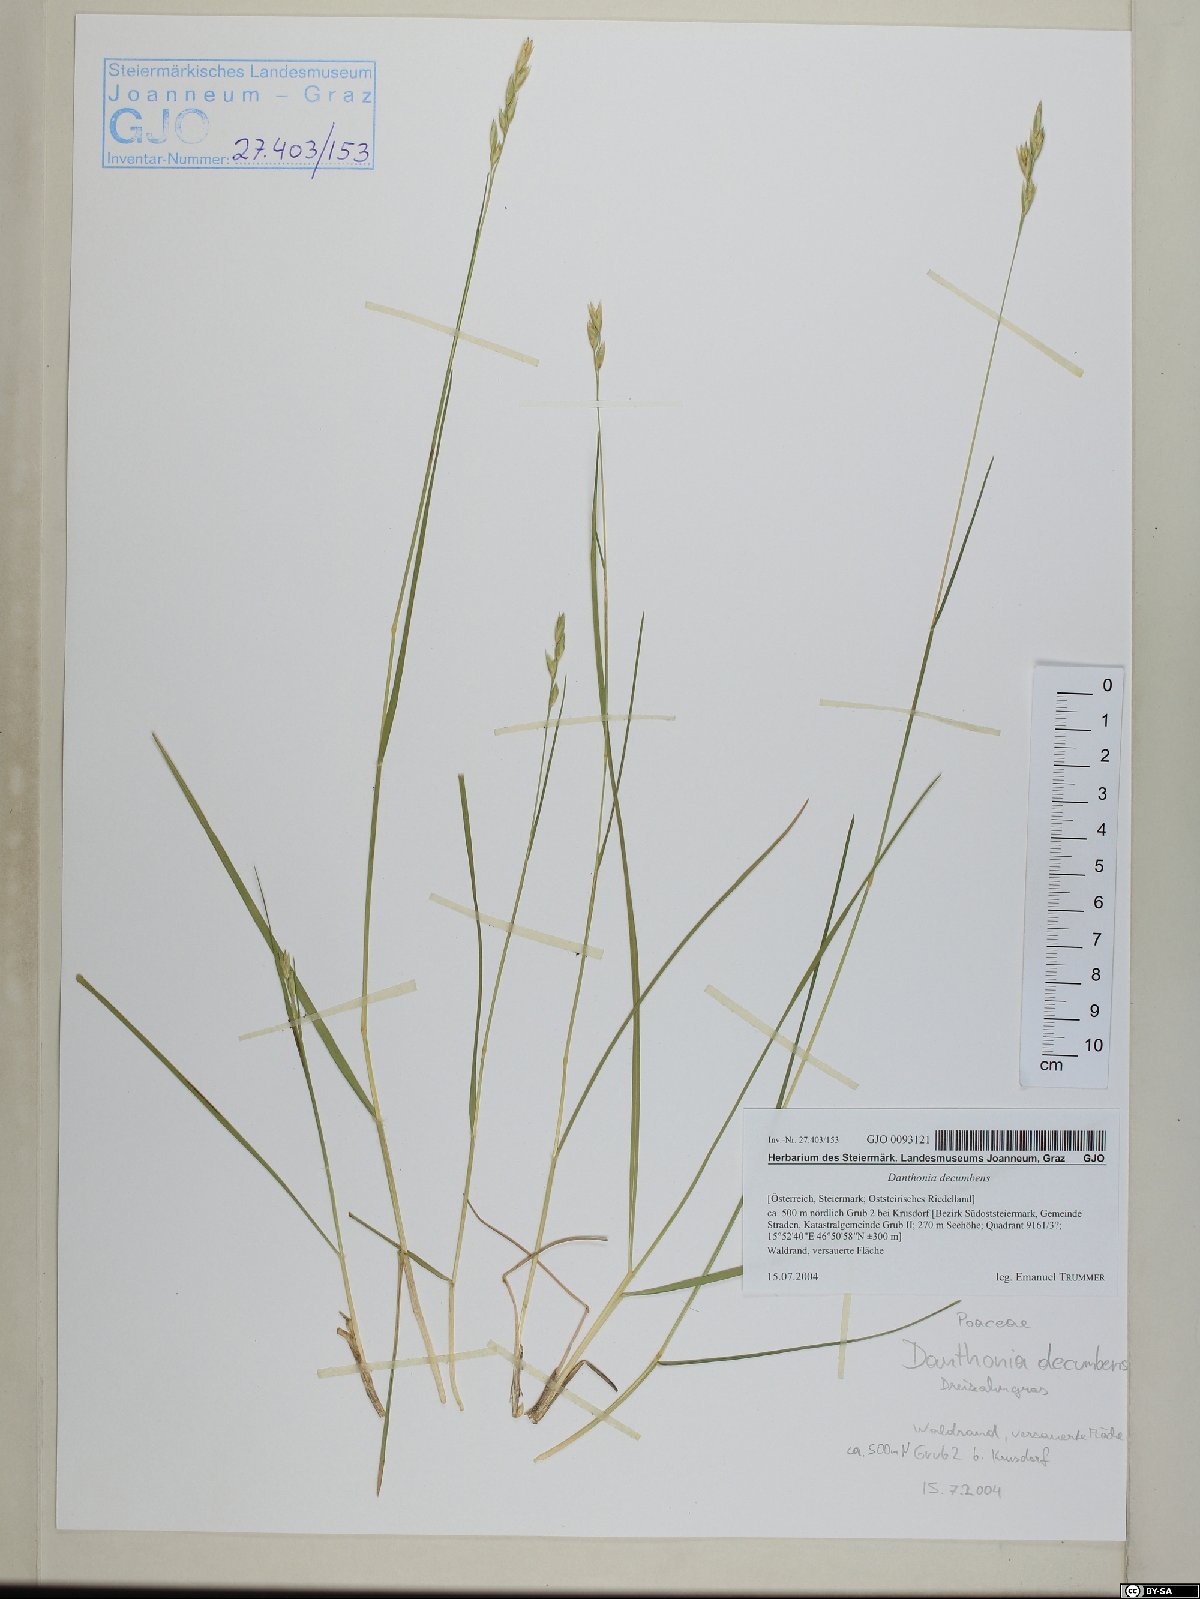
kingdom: Plantae
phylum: Tracheophyta
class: Liliopsida
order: Poales
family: Poaceae
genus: Danthonia
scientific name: Danthonia decumbens
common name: Common heathgrass
